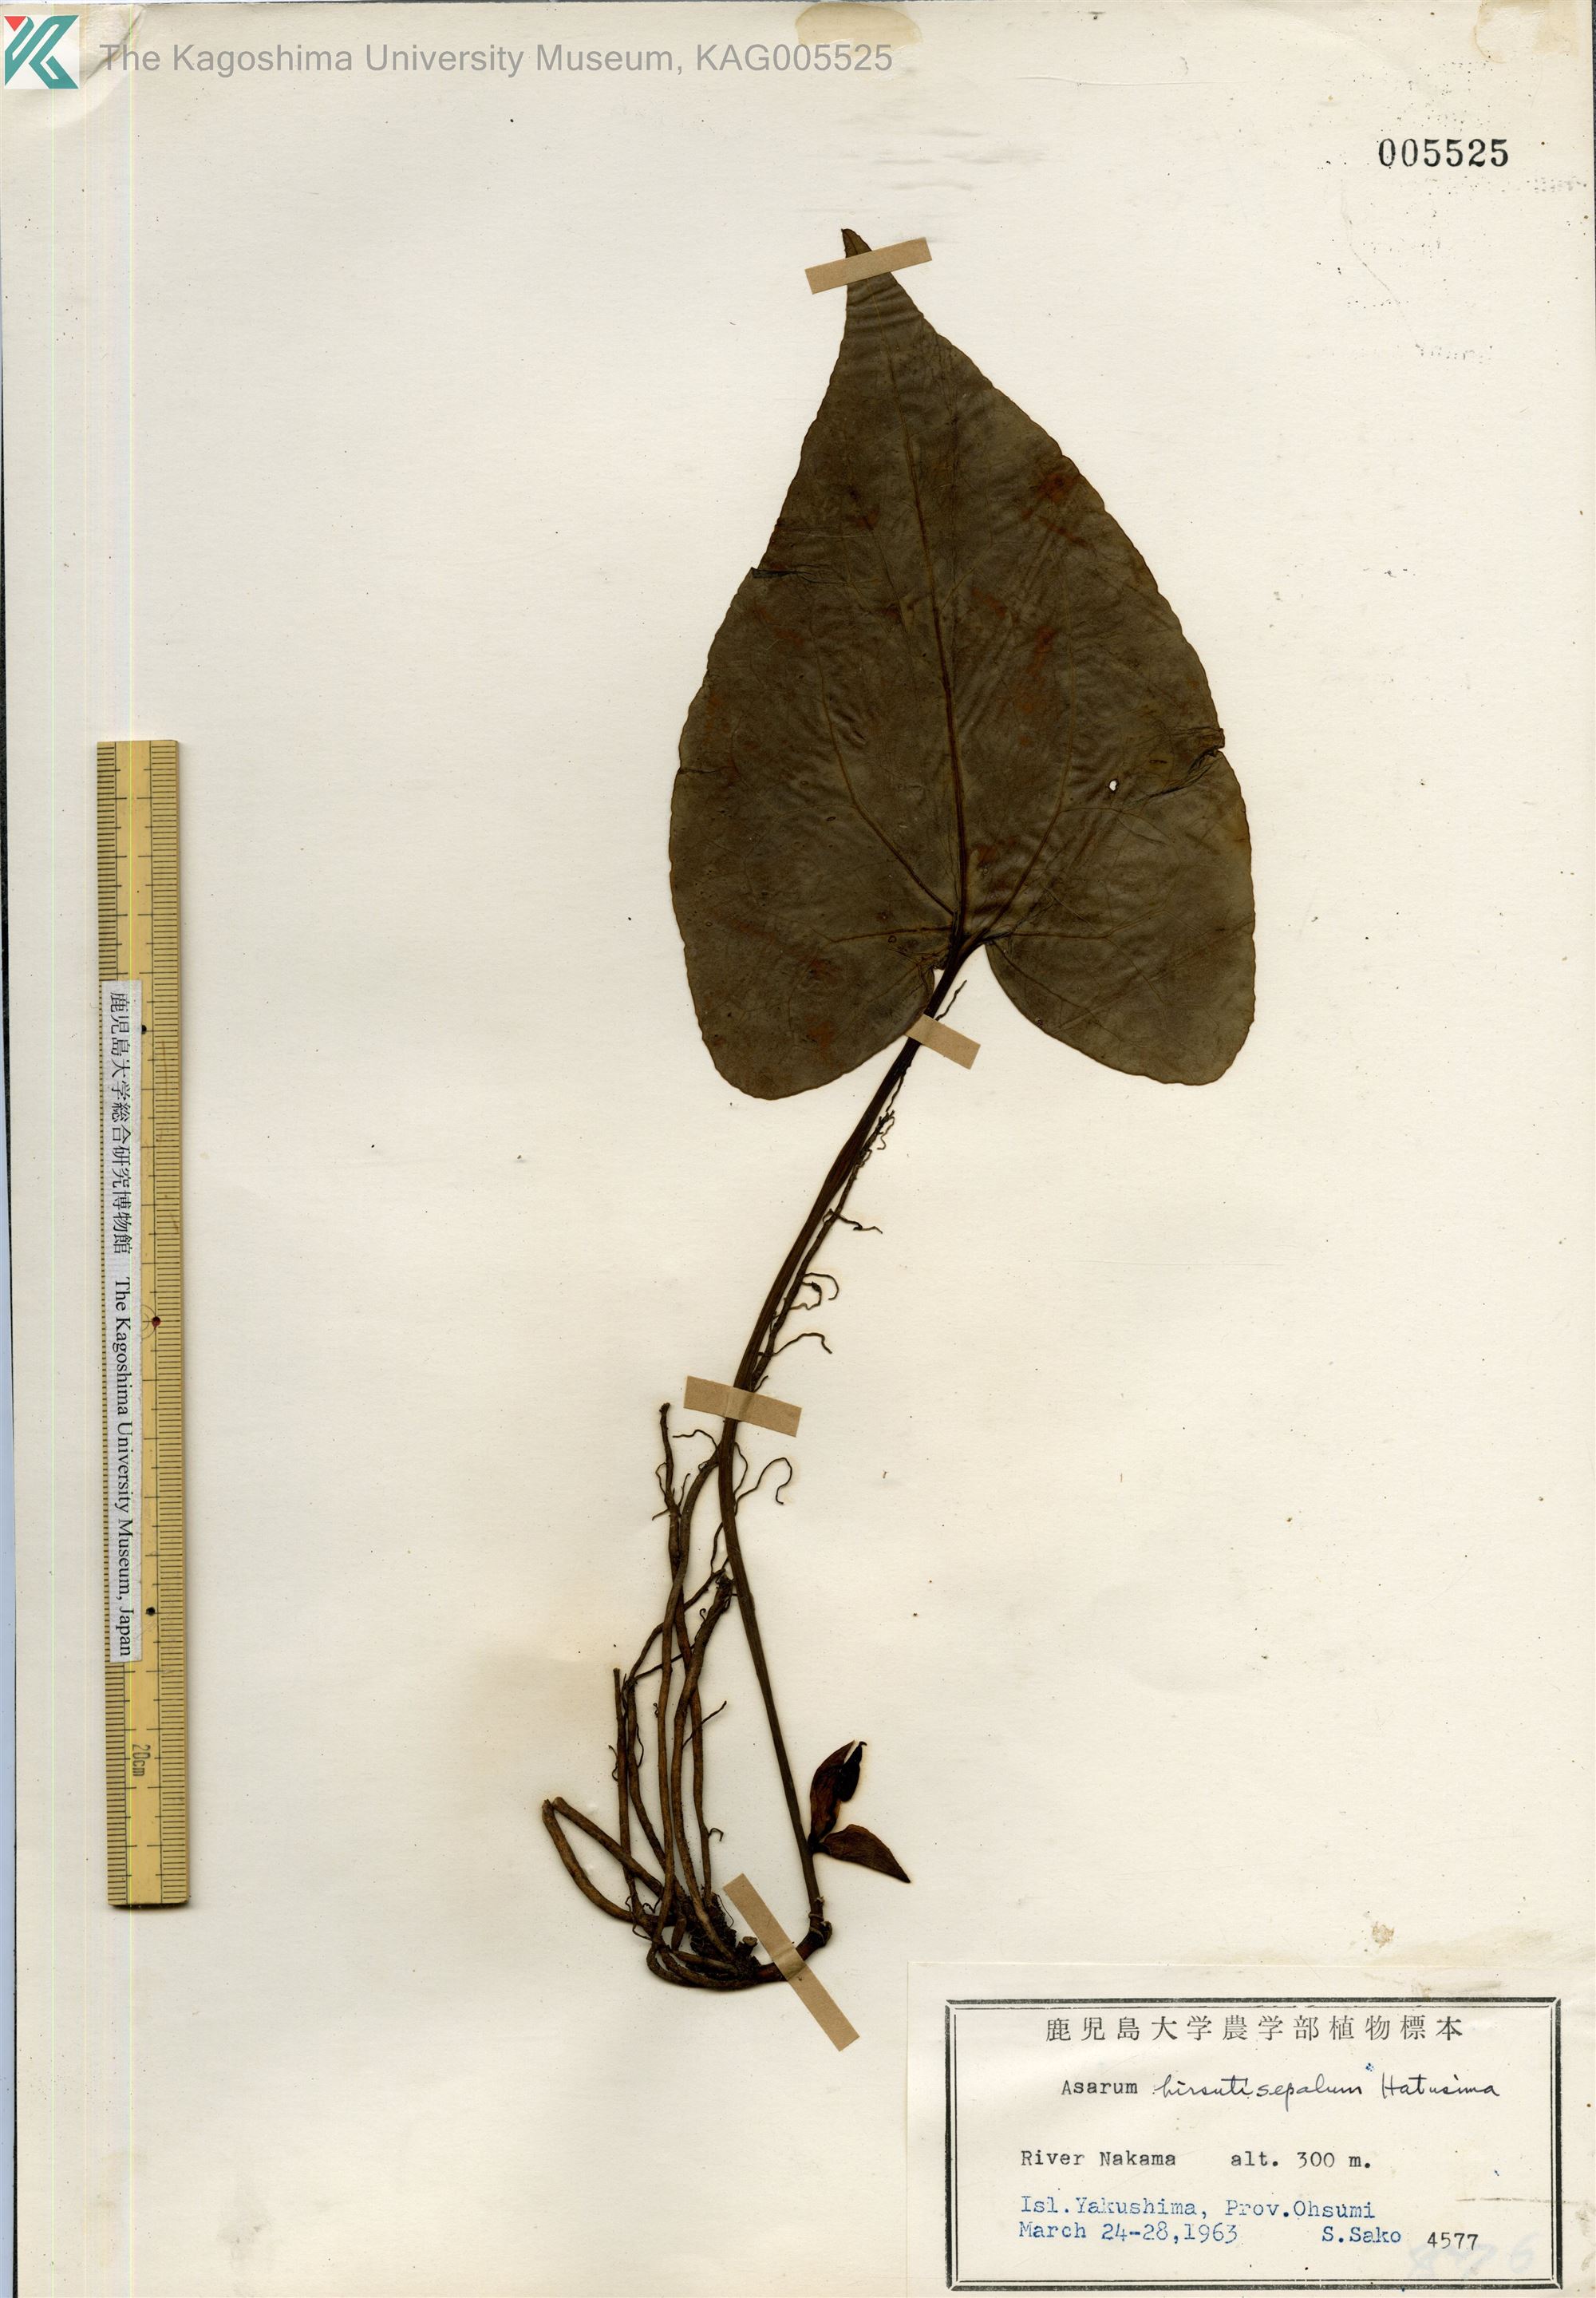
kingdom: Plantae
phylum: Tracheophyta
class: Magnoliopsida
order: Piperales
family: Aristolochiaceae
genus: Asarum
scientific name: Asarum yakusimense
